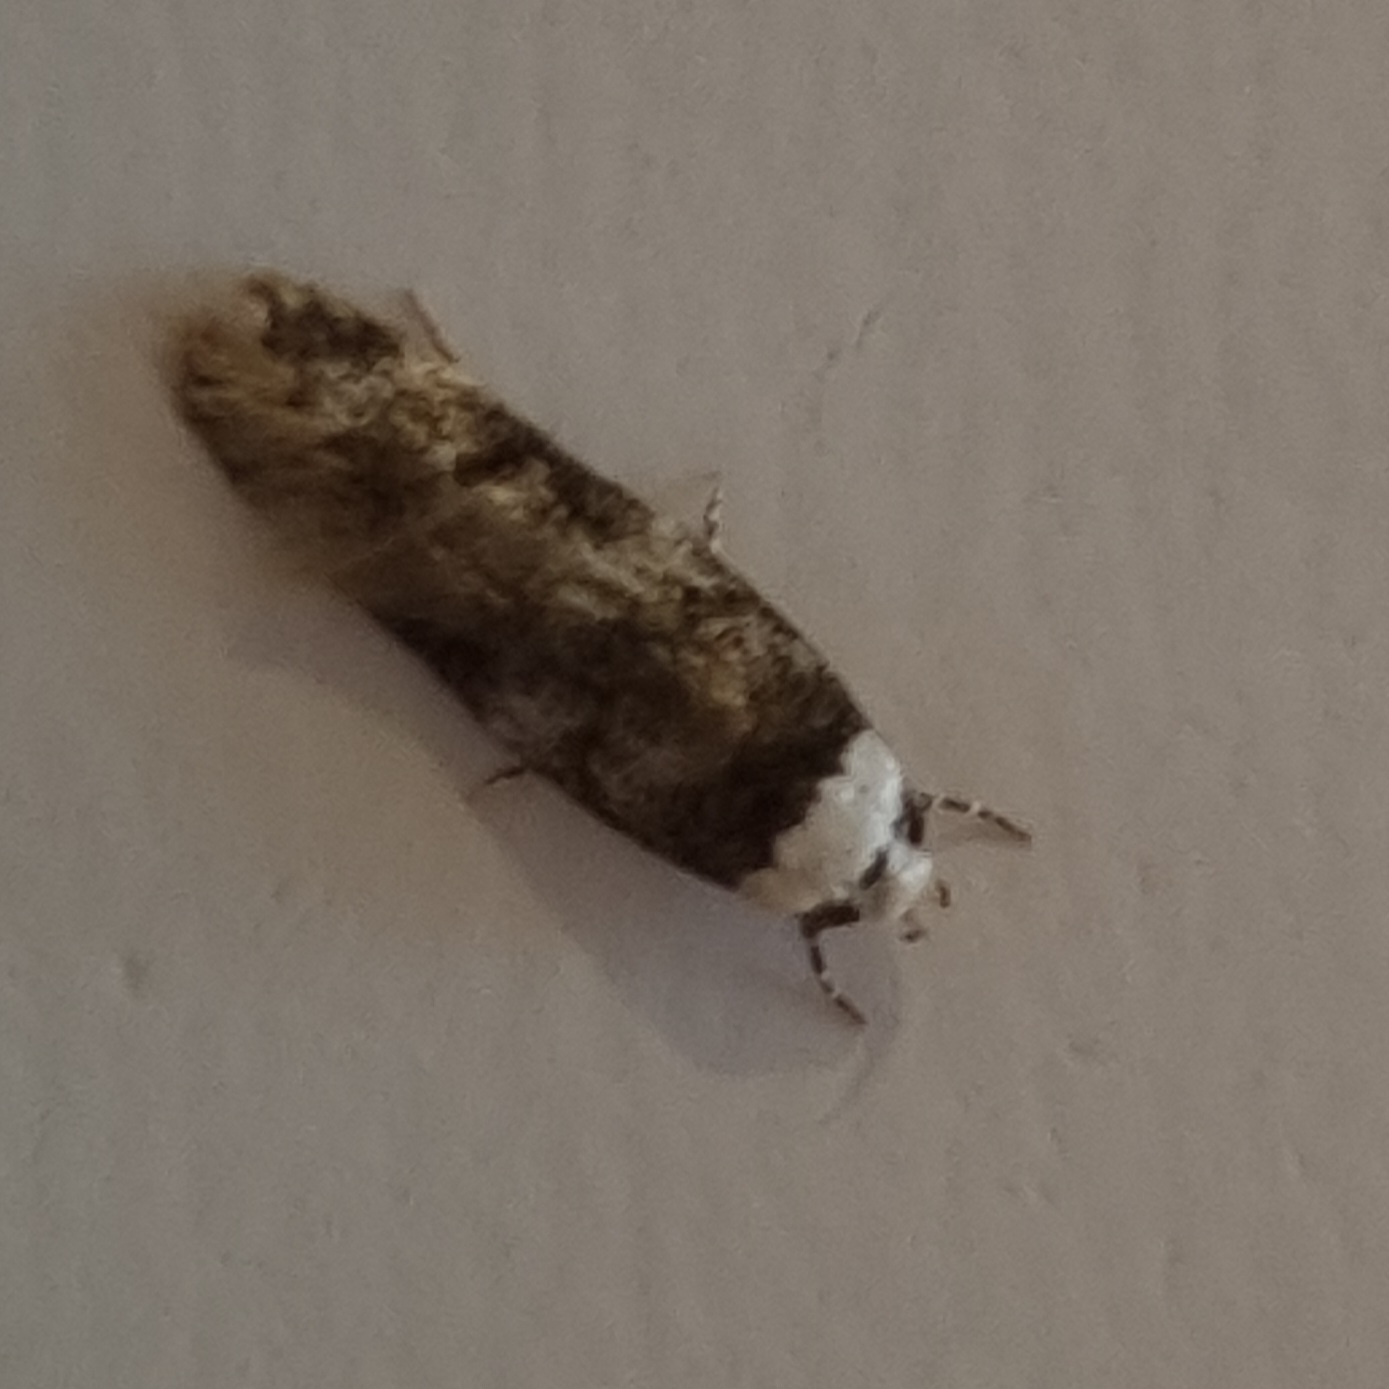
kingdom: Animalia
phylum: Arthropoda
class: Insecta
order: Lepidoptera
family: Oecophoridae
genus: Endrosis
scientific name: Endrosis sarcitrella
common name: Klistermøl
